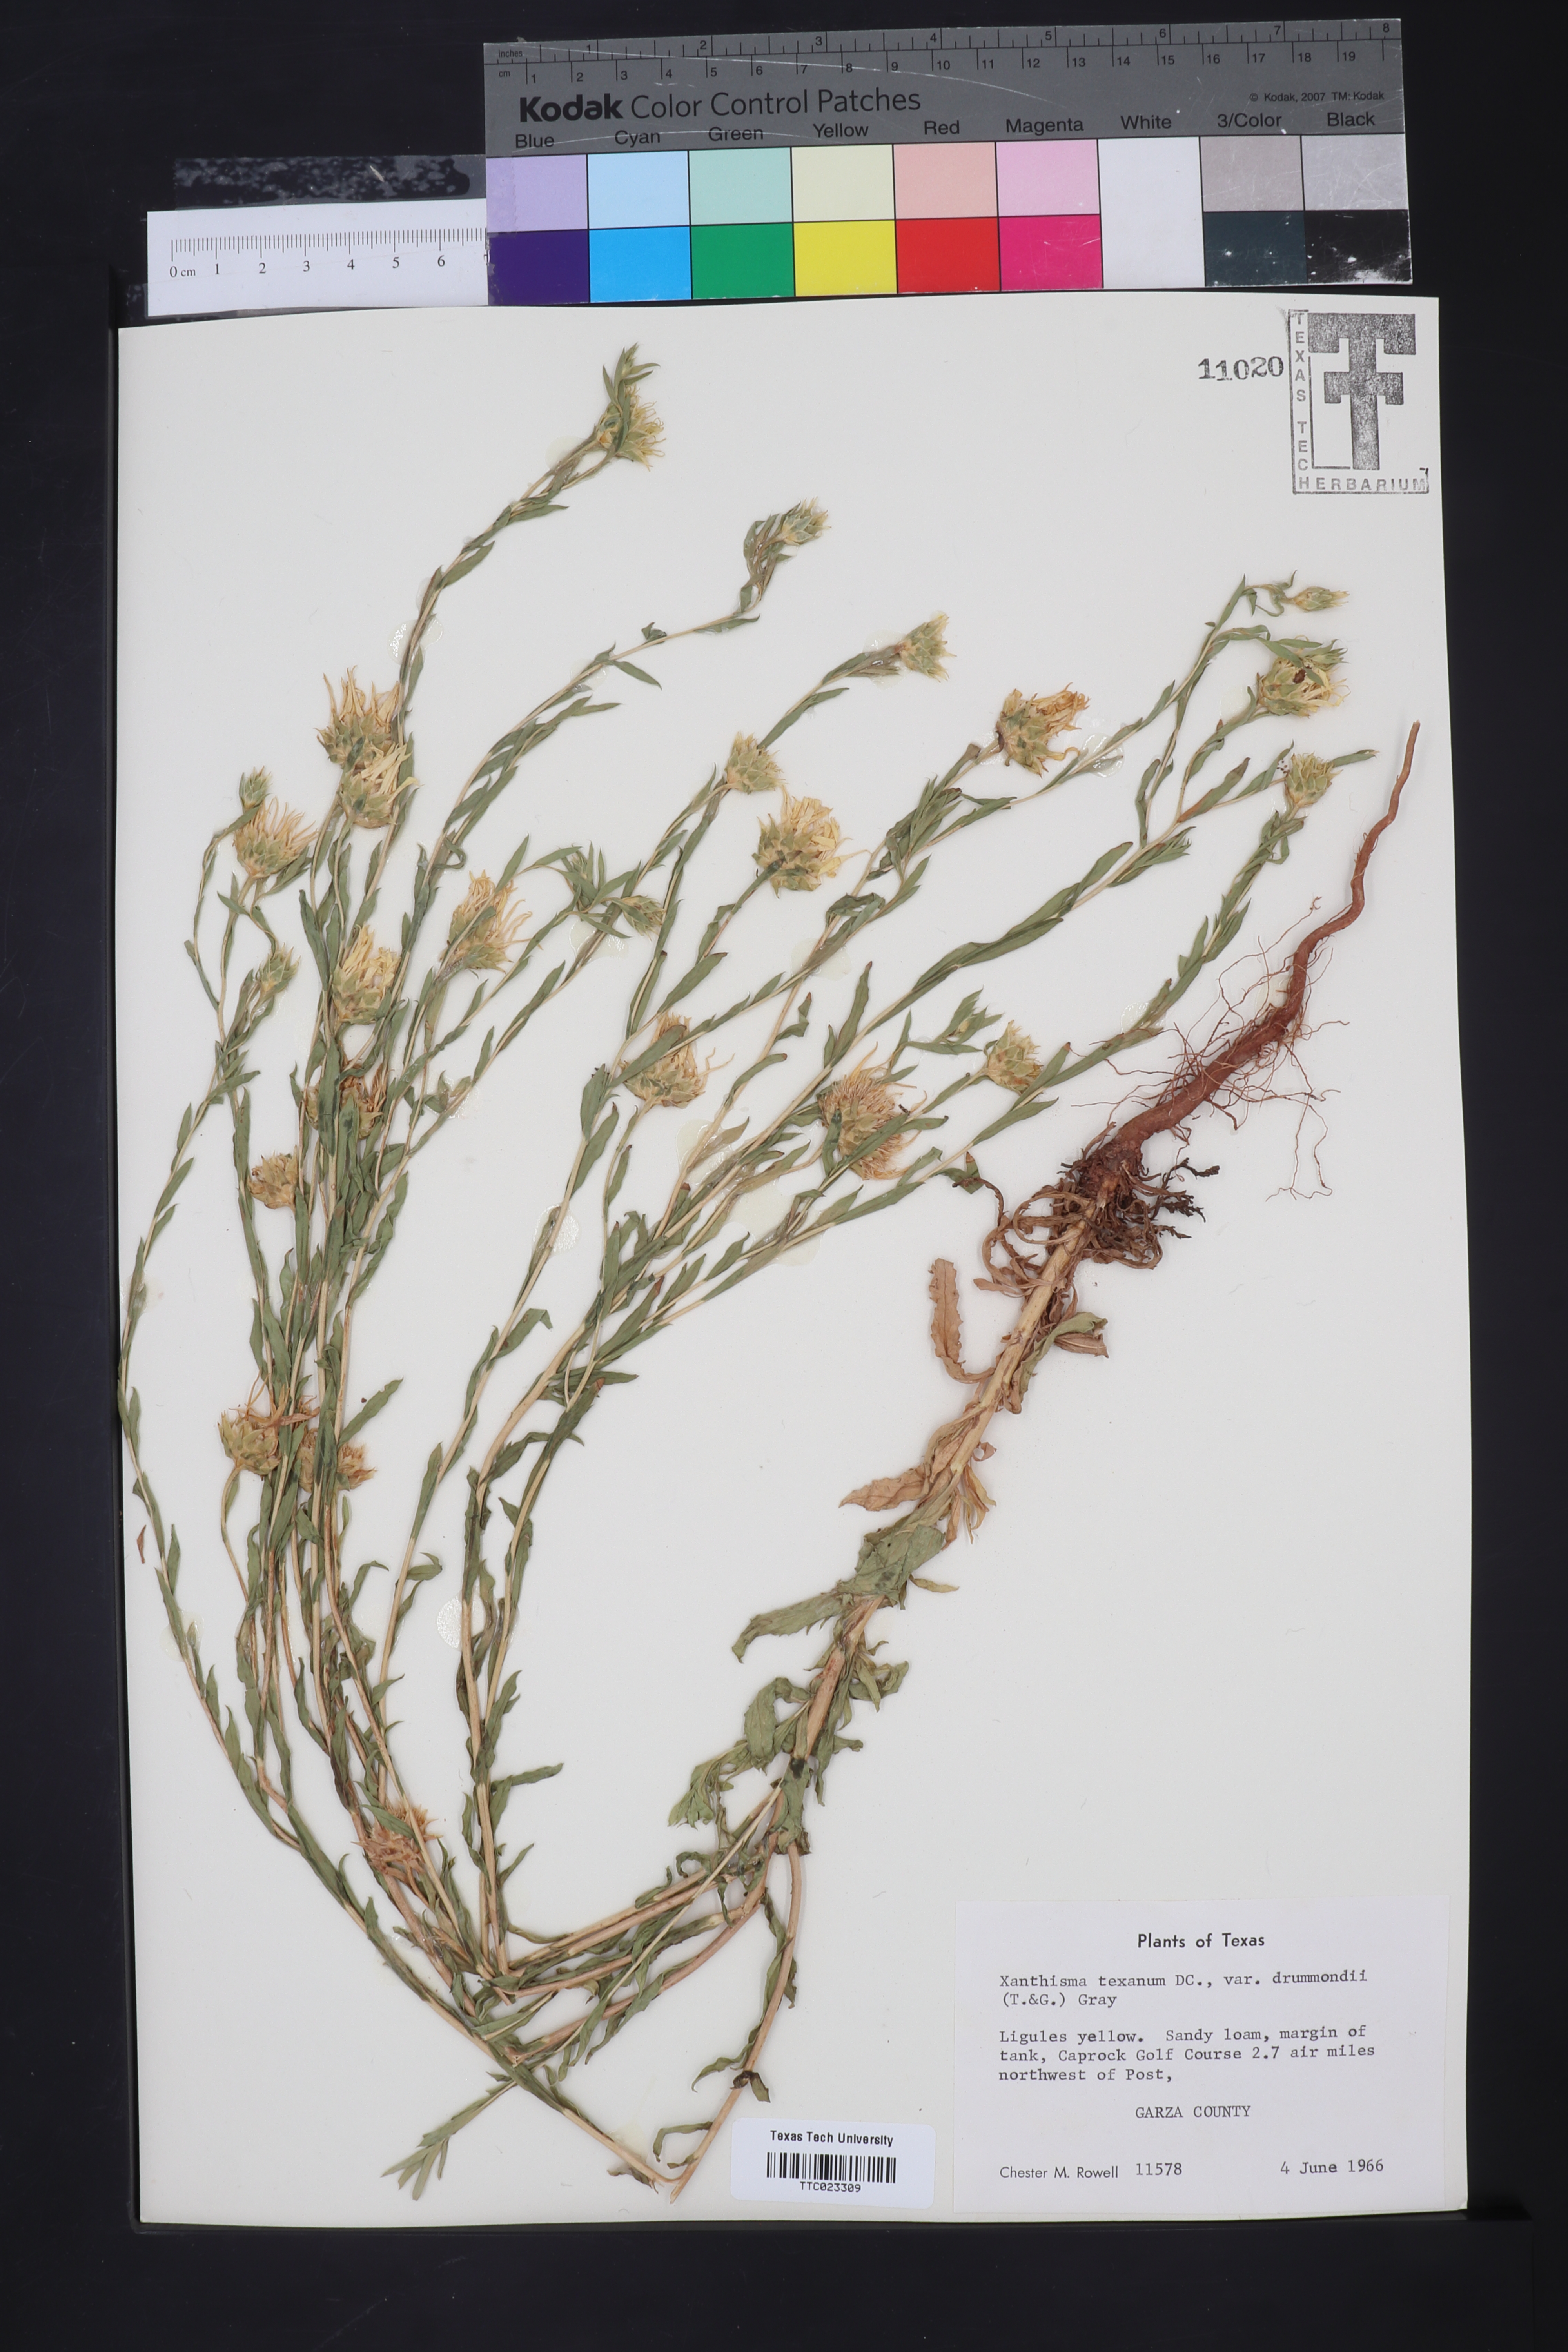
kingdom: Plantae
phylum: Tracheophyta
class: Magnoliopsida
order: Asterales
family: Asteraceae
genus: Xanthisma
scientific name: Xanthisma texanum
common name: Texas sleepy daisy
